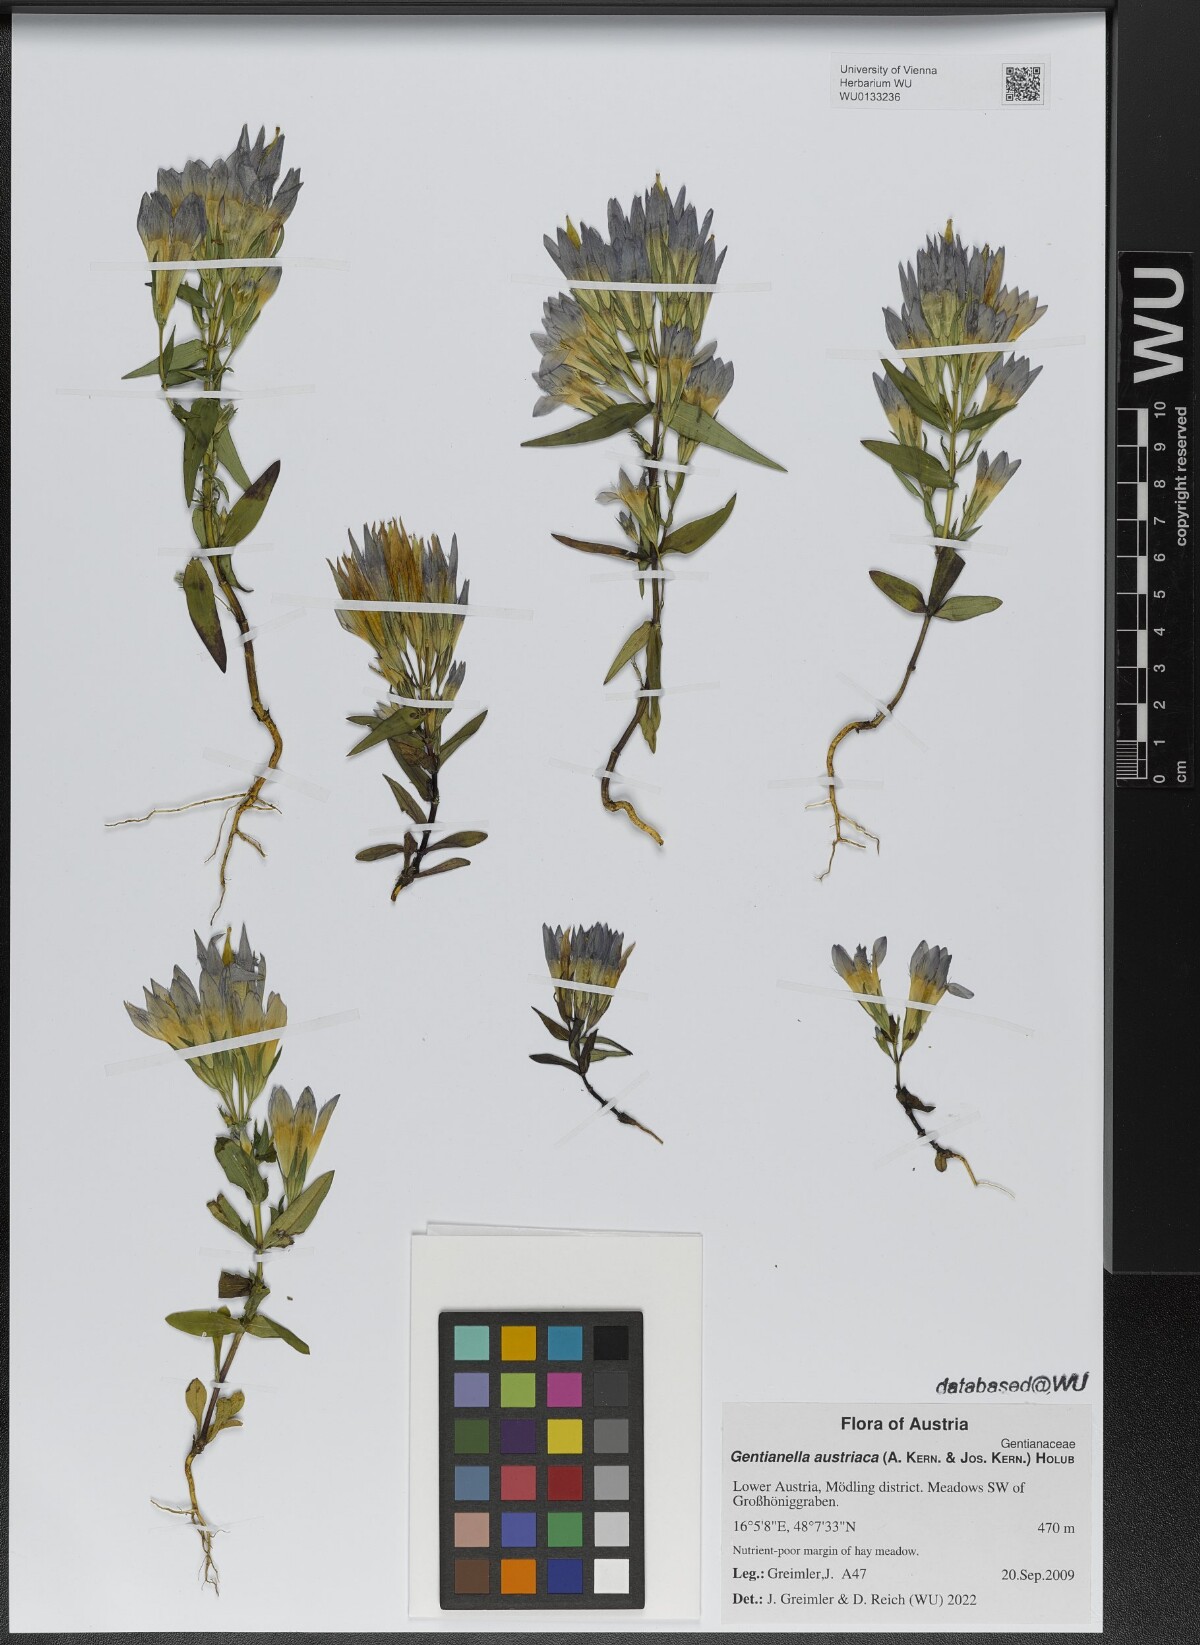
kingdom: Plantae
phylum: Tracheophyta
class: Magnoliopsida
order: Gentianales
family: Gentianaceae
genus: Gentianella
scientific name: Gentianella austriaca
